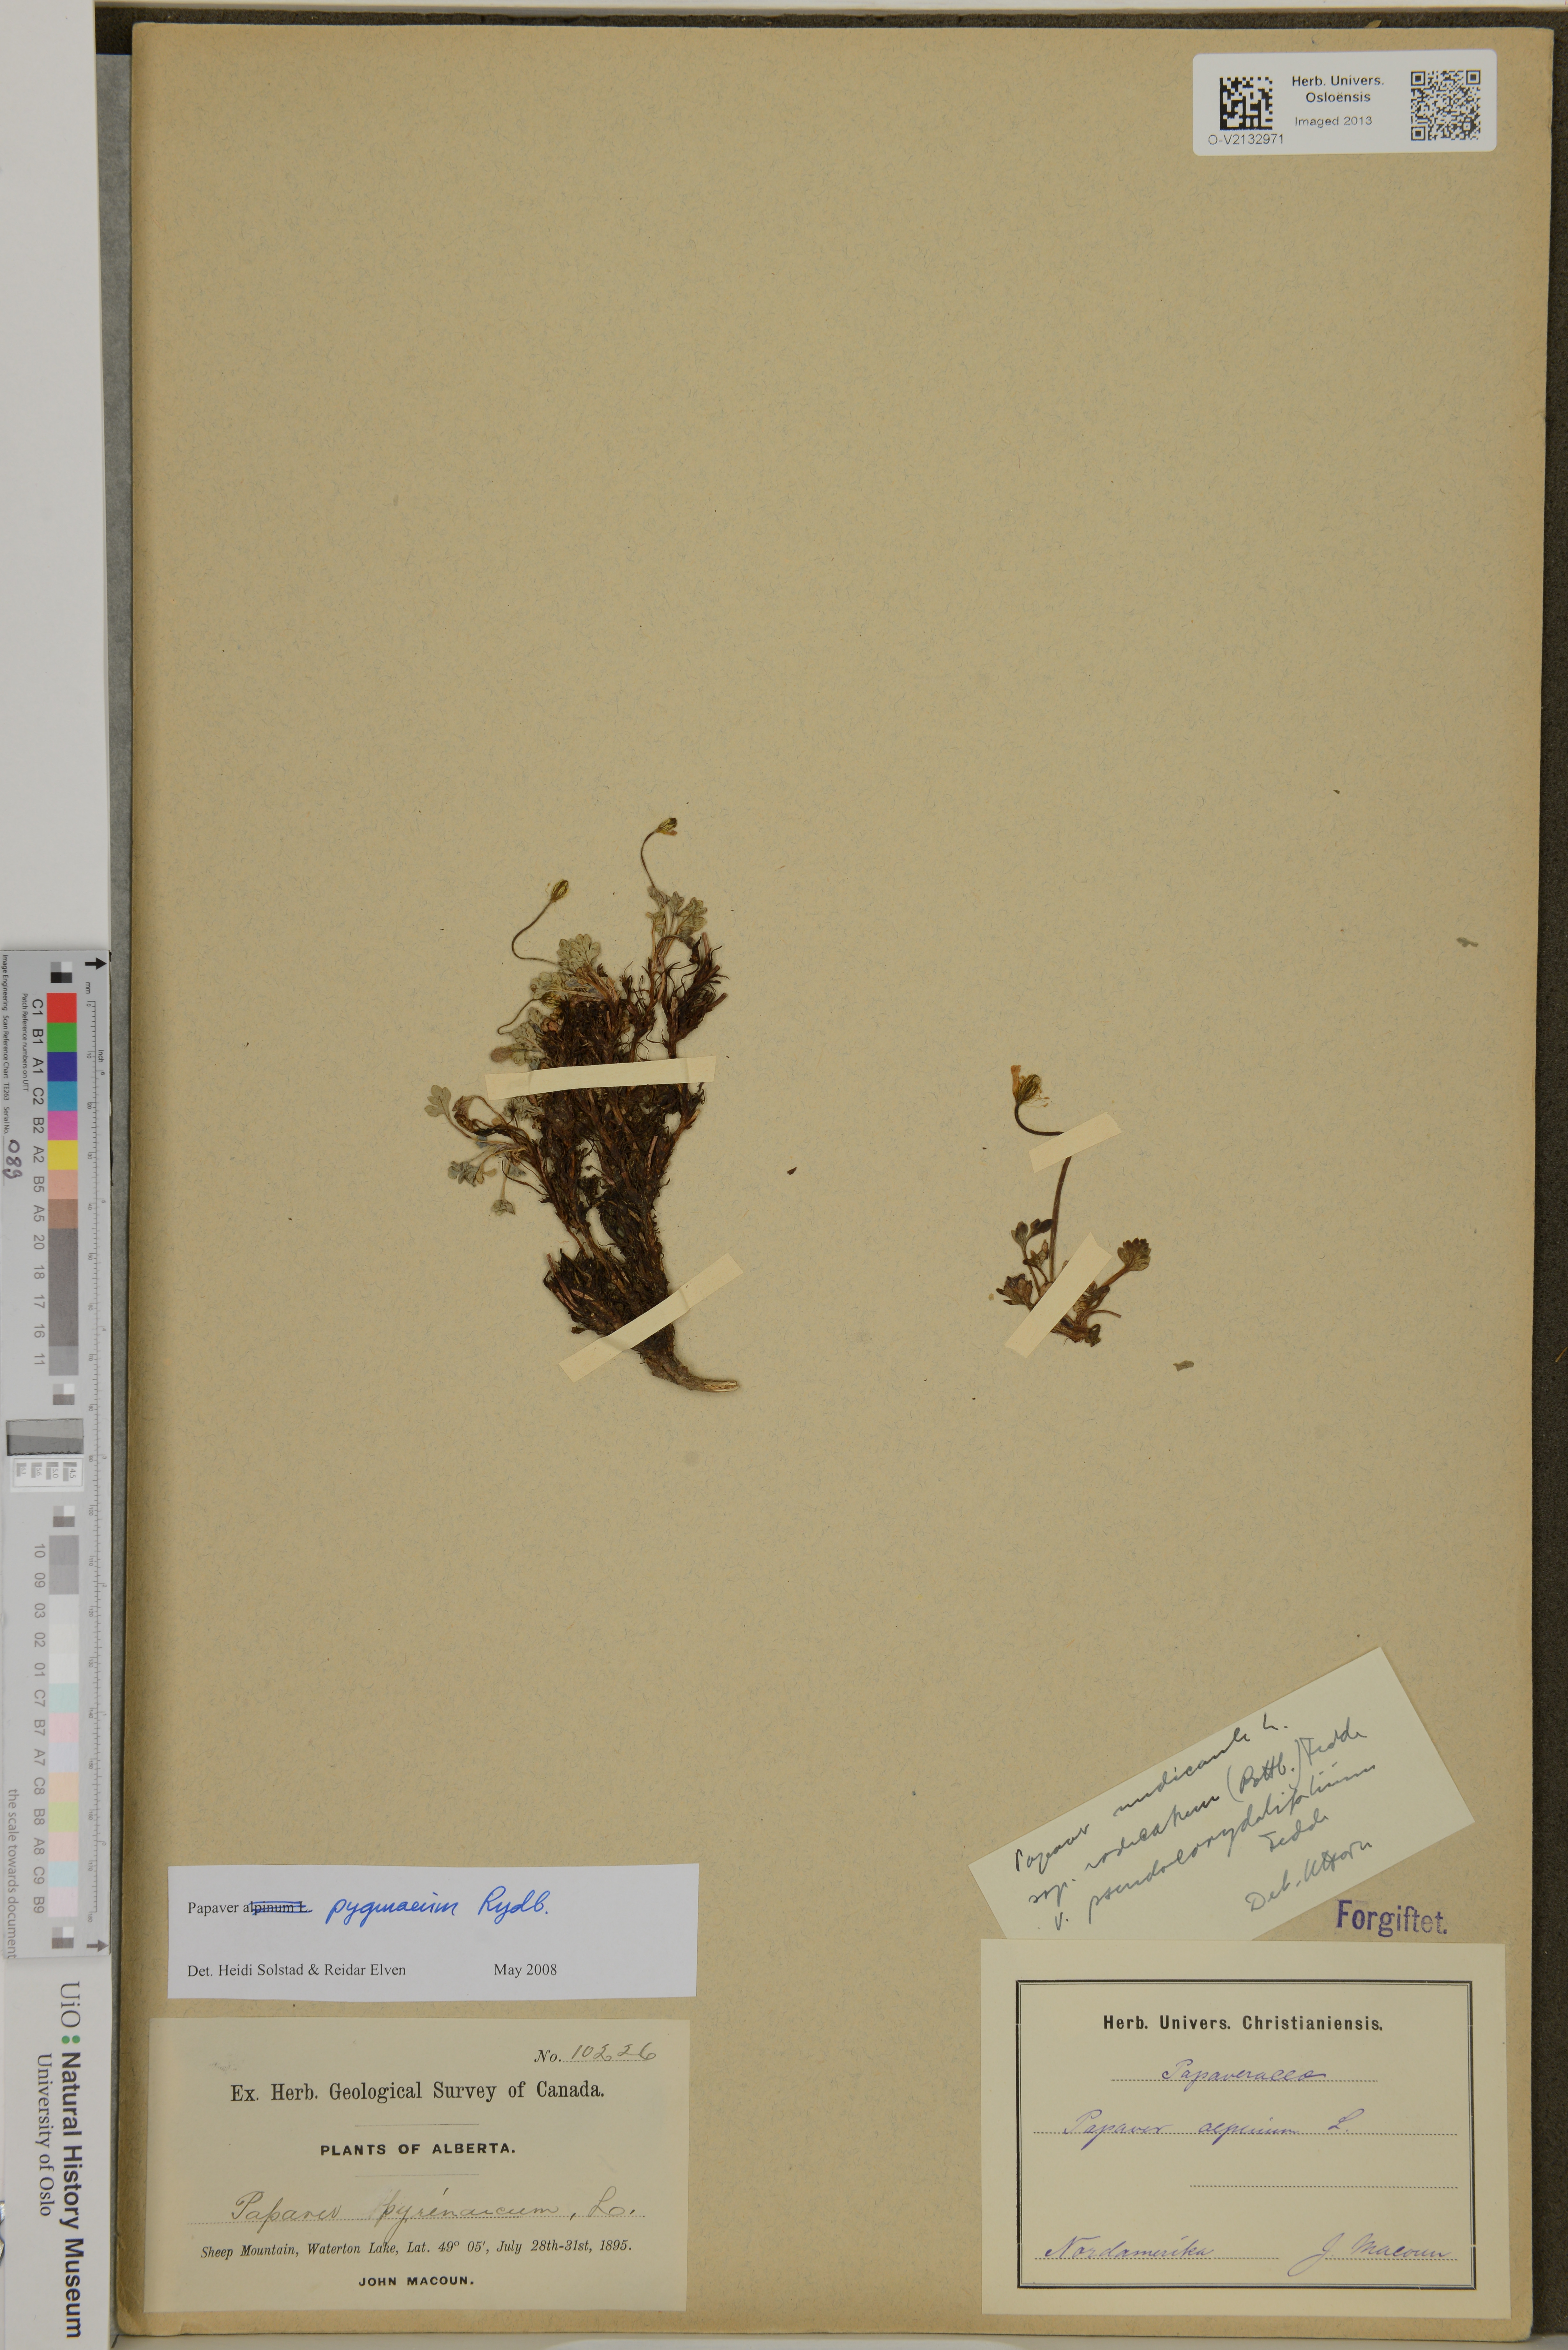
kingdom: Plantae
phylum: Tracheophyta
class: Magnoliopsida
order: Ranunculales
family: Papaveraceae
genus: Papaver
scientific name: Papaver pygmaeum
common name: Alpine glacier poppy
